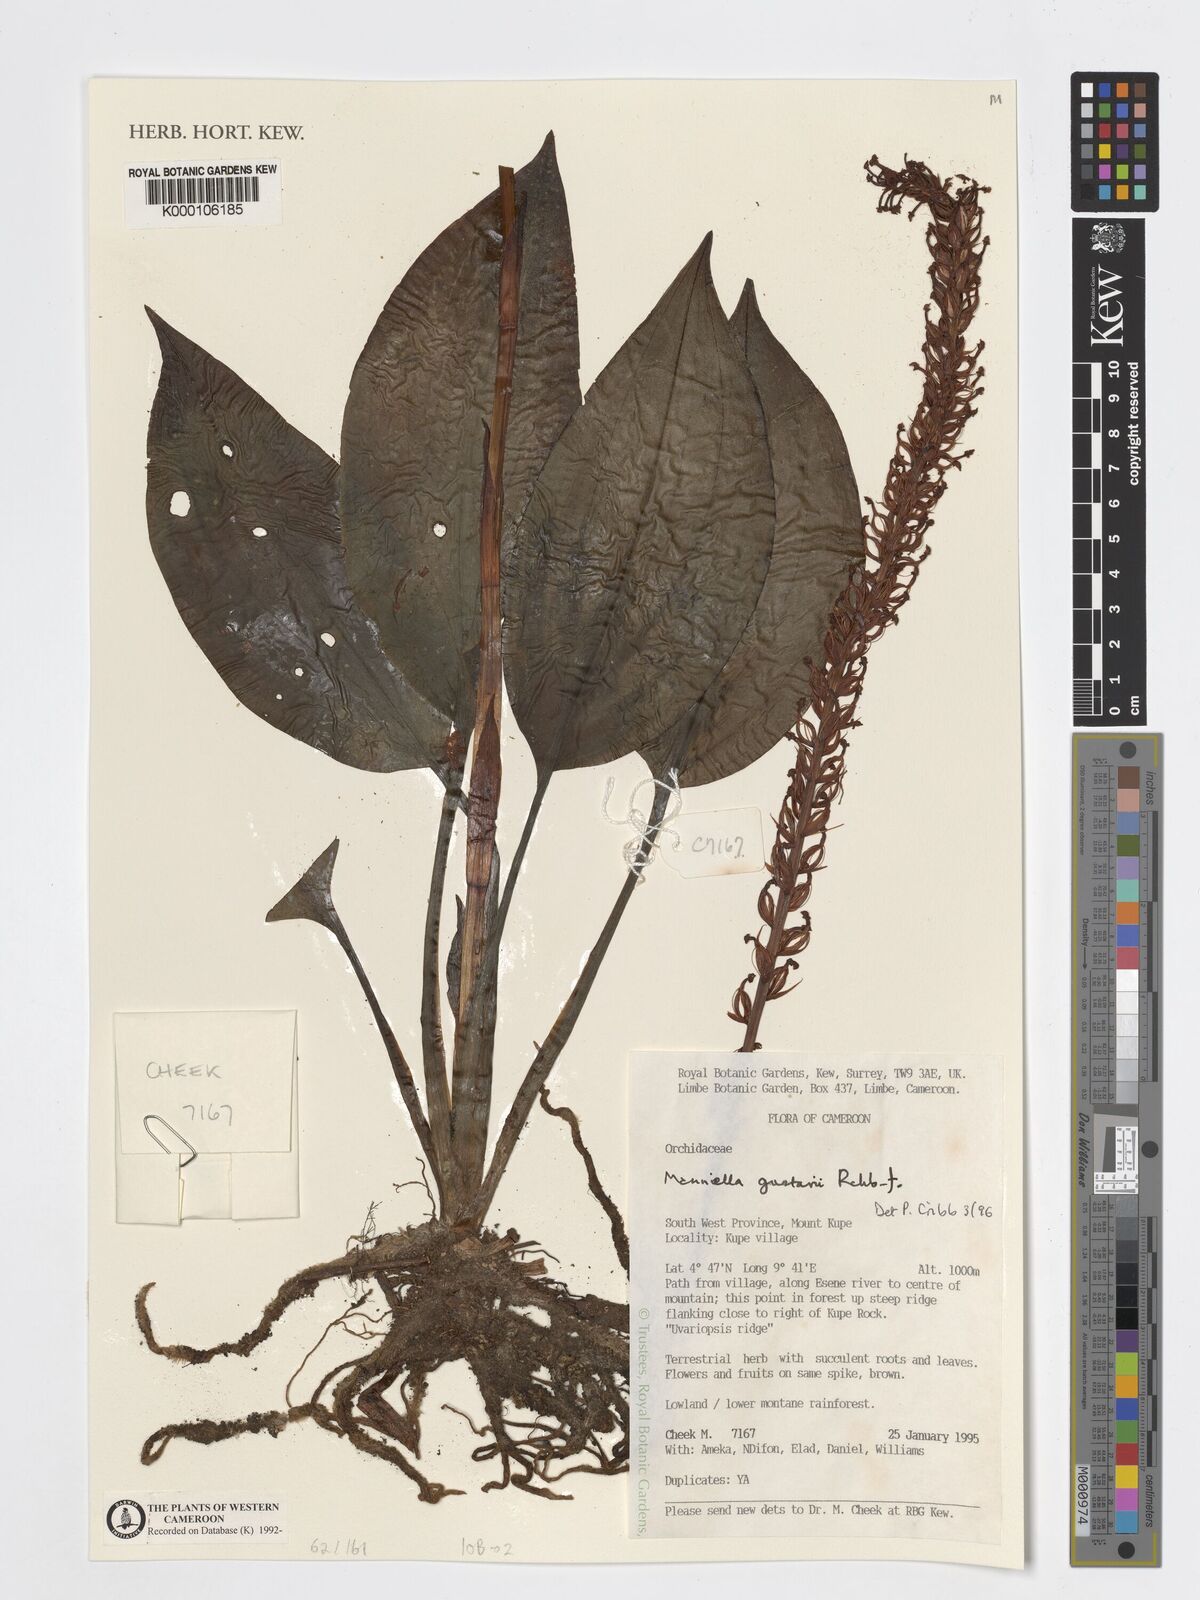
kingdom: Plantae
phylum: Tracheophyta
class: Liliopsida
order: Asparagales
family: Orchidaceae
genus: Manniella
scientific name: Manniella gustavi
